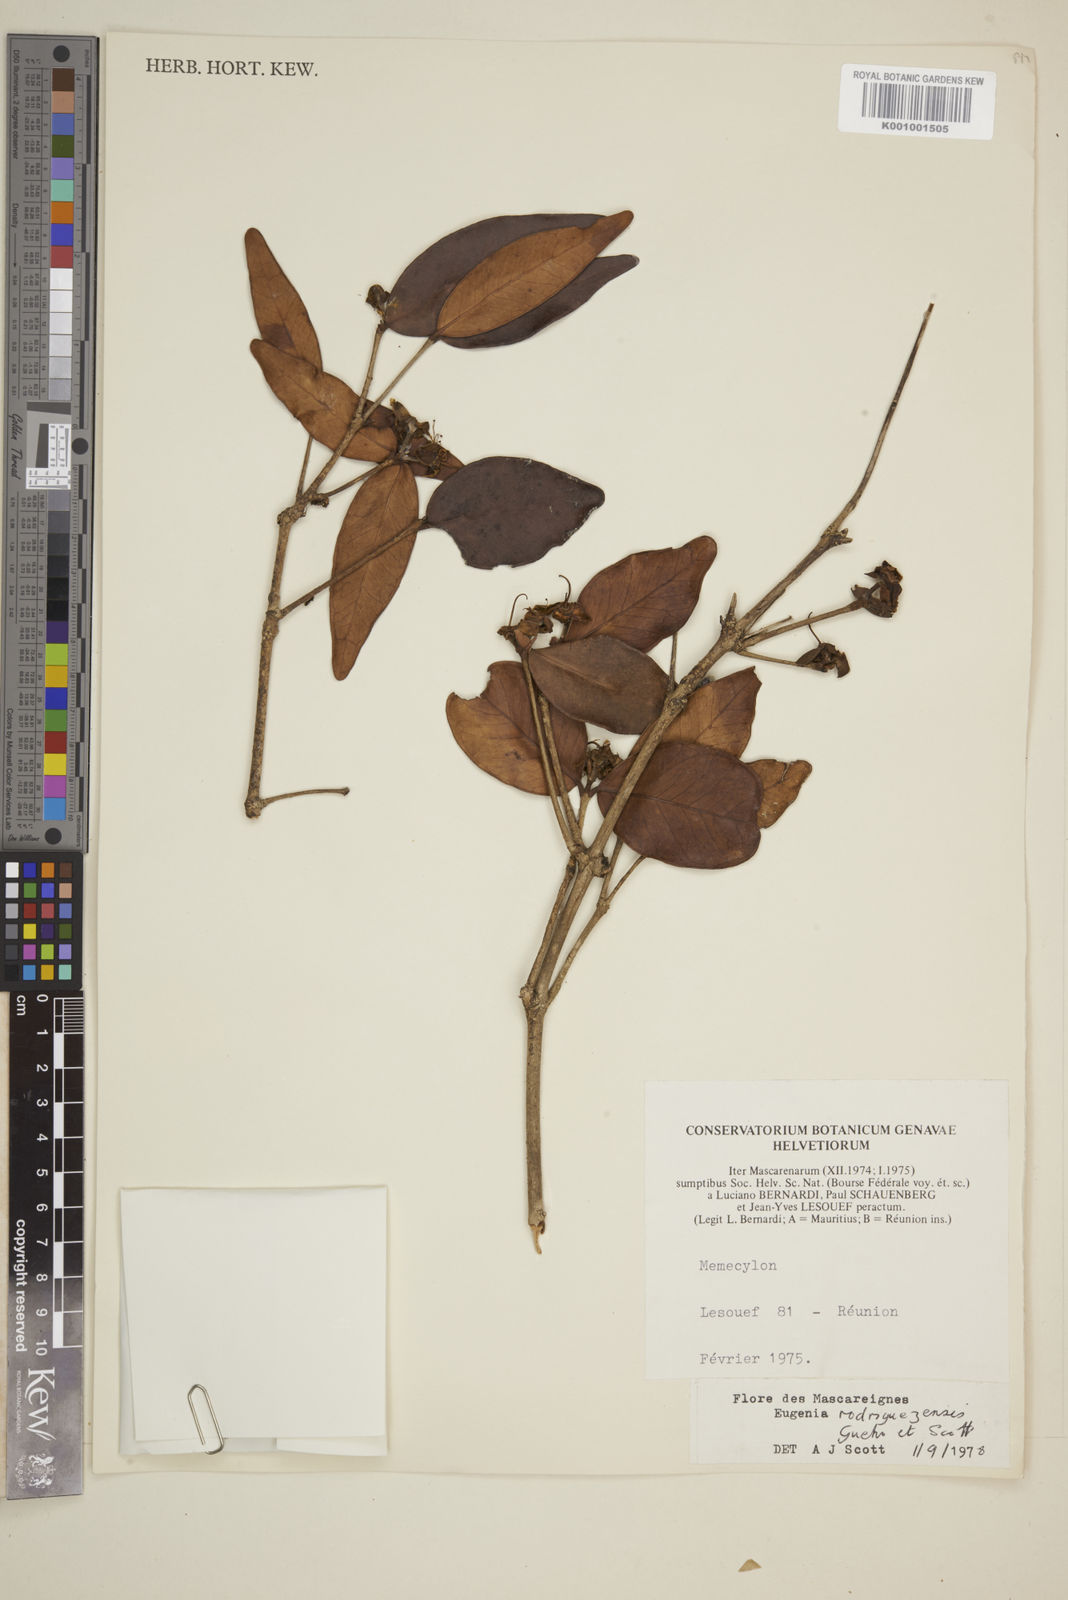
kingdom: Plantae
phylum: Tracheophyta
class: Magnoliopsida
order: Myrtales
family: Myrtaceae
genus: Eugenia
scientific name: Eugenia
